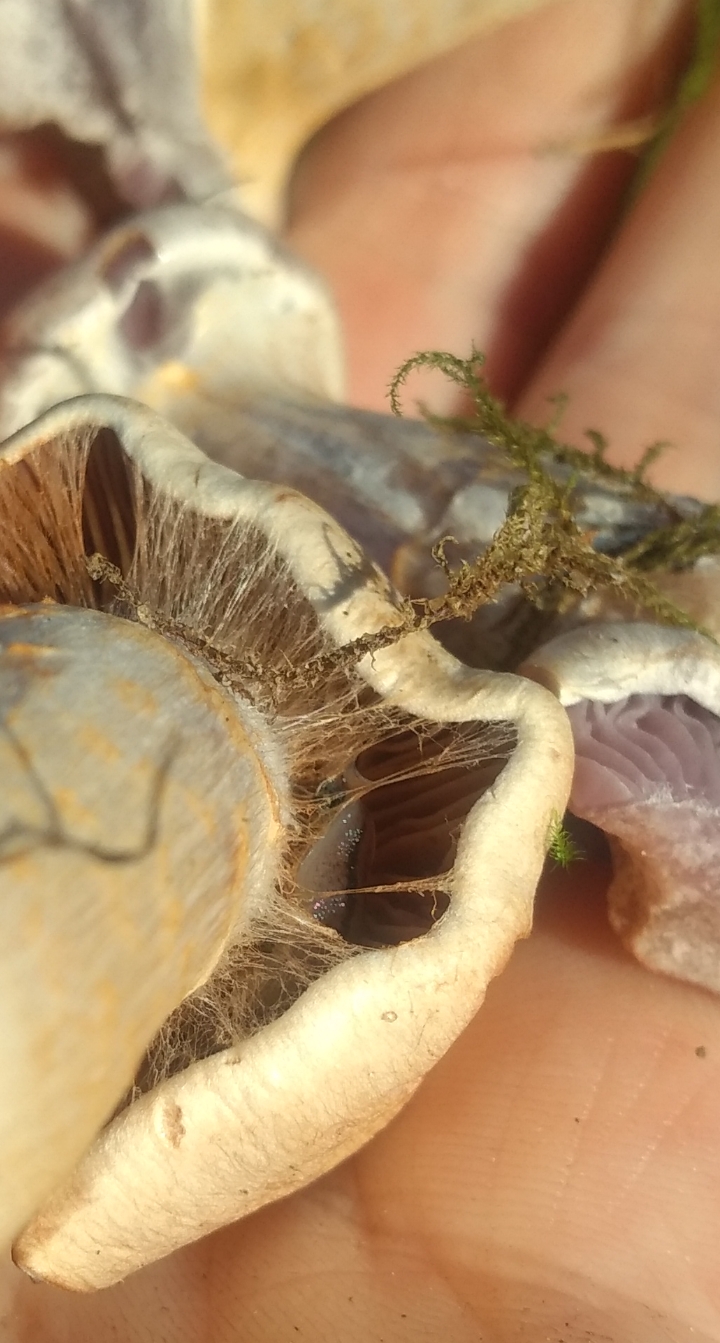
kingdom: Fungi
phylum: Basidiomycota
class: Agaricomycetes
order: Agaricales
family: Cortinariaceae
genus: Cortinarius
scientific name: Cortinarius
